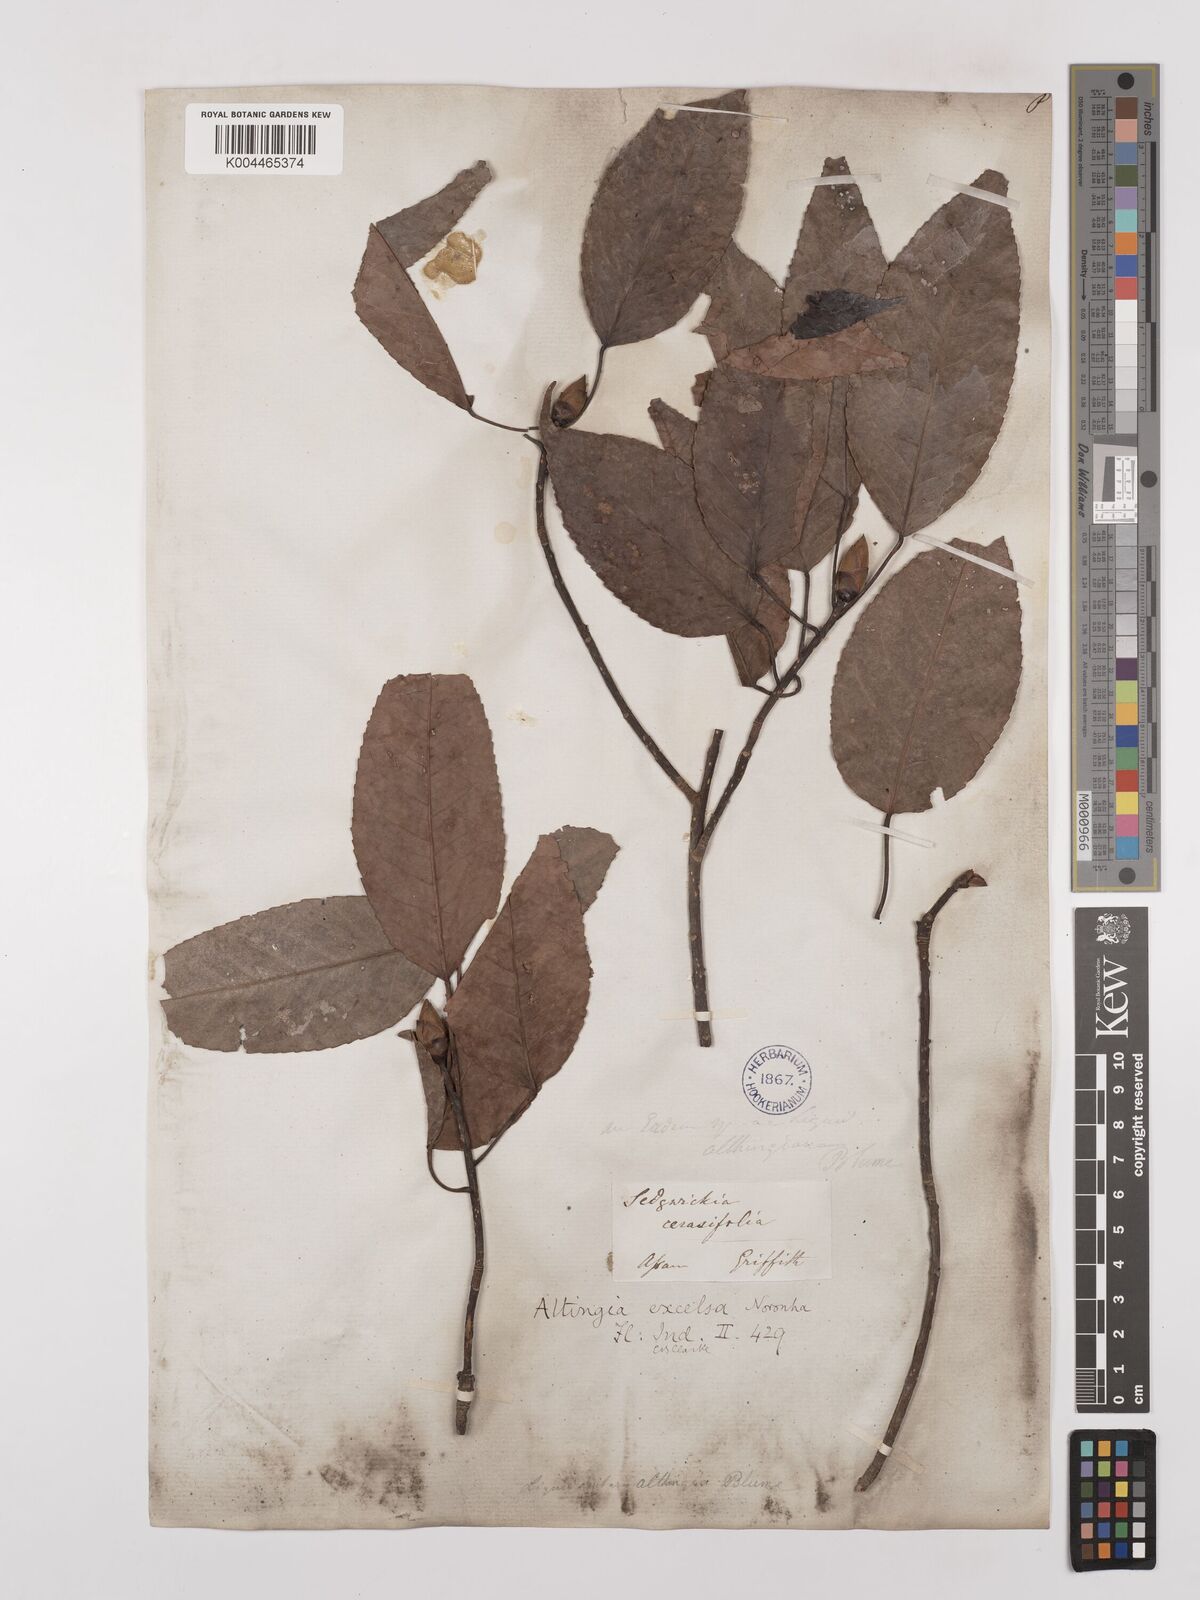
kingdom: Plantae
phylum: Tracheophyta
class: Magnoliopsida
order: Saxifragales
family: Altingiaceae
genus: Liquidambar
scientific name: Liquidambar excelsa
